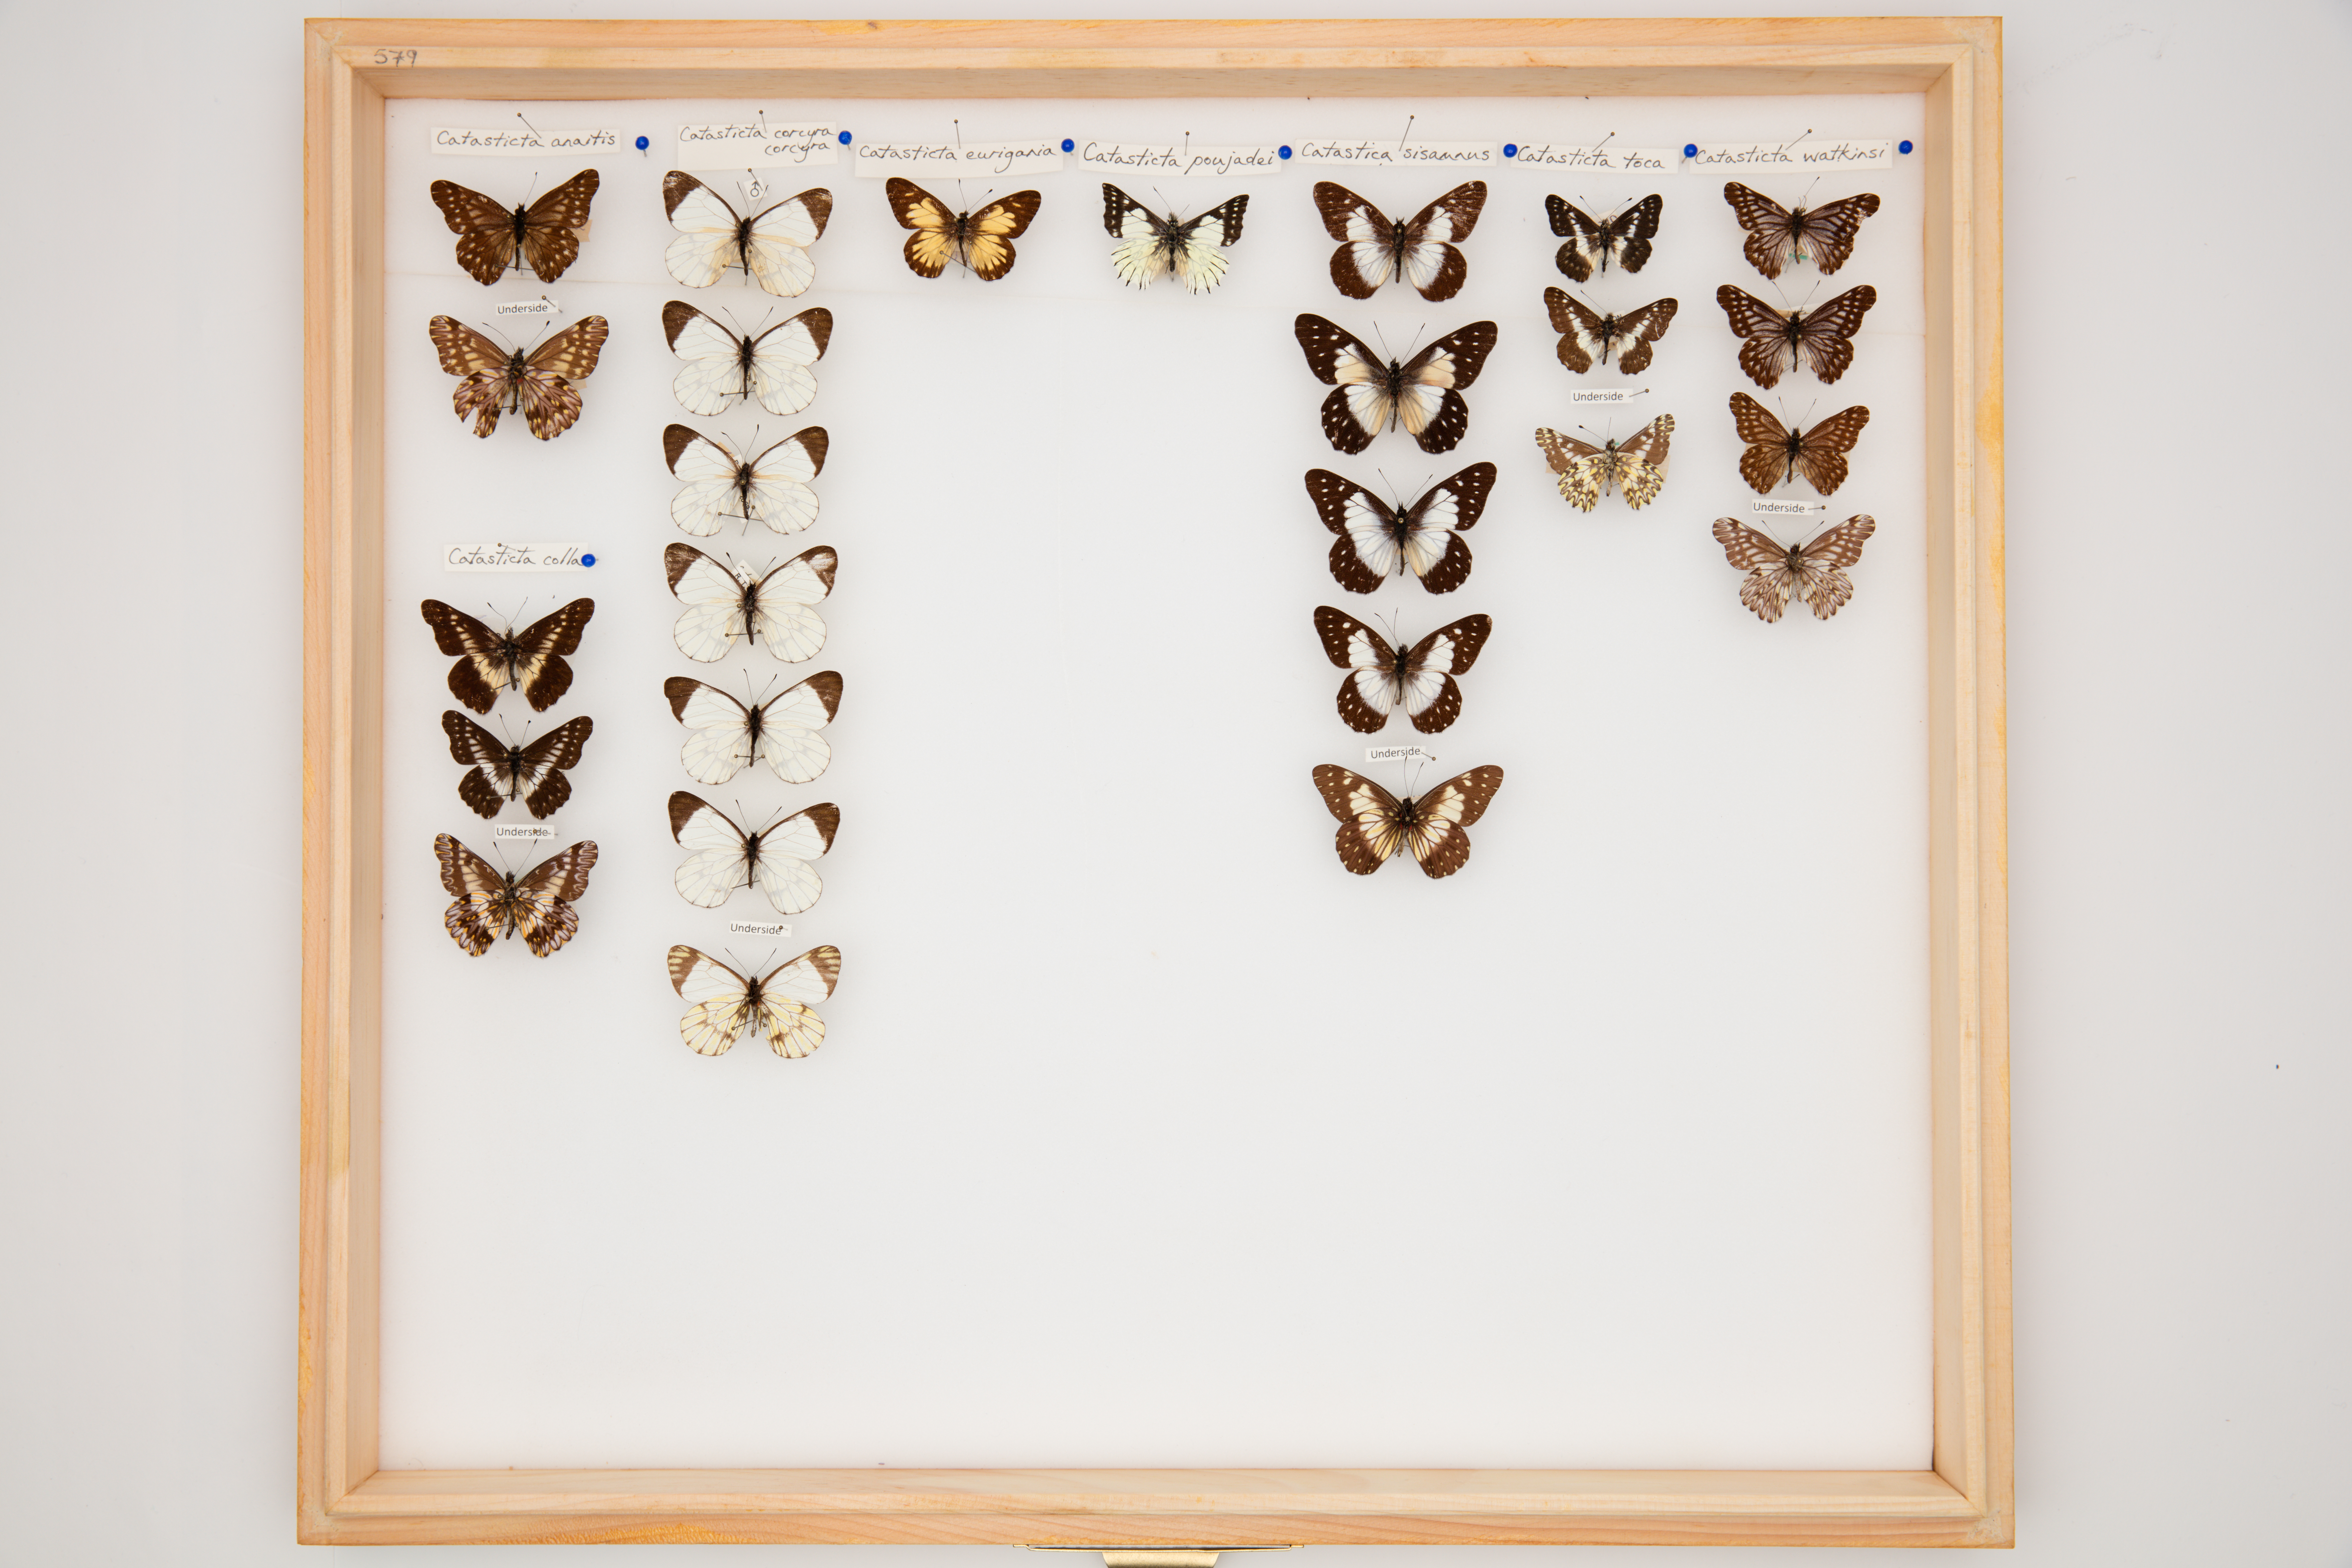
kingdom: Animalia
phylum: Arthropoda
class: Insecta
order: Lepidoptera
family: Pieridae
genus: Catasticta
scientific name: Catasticta corcyra
